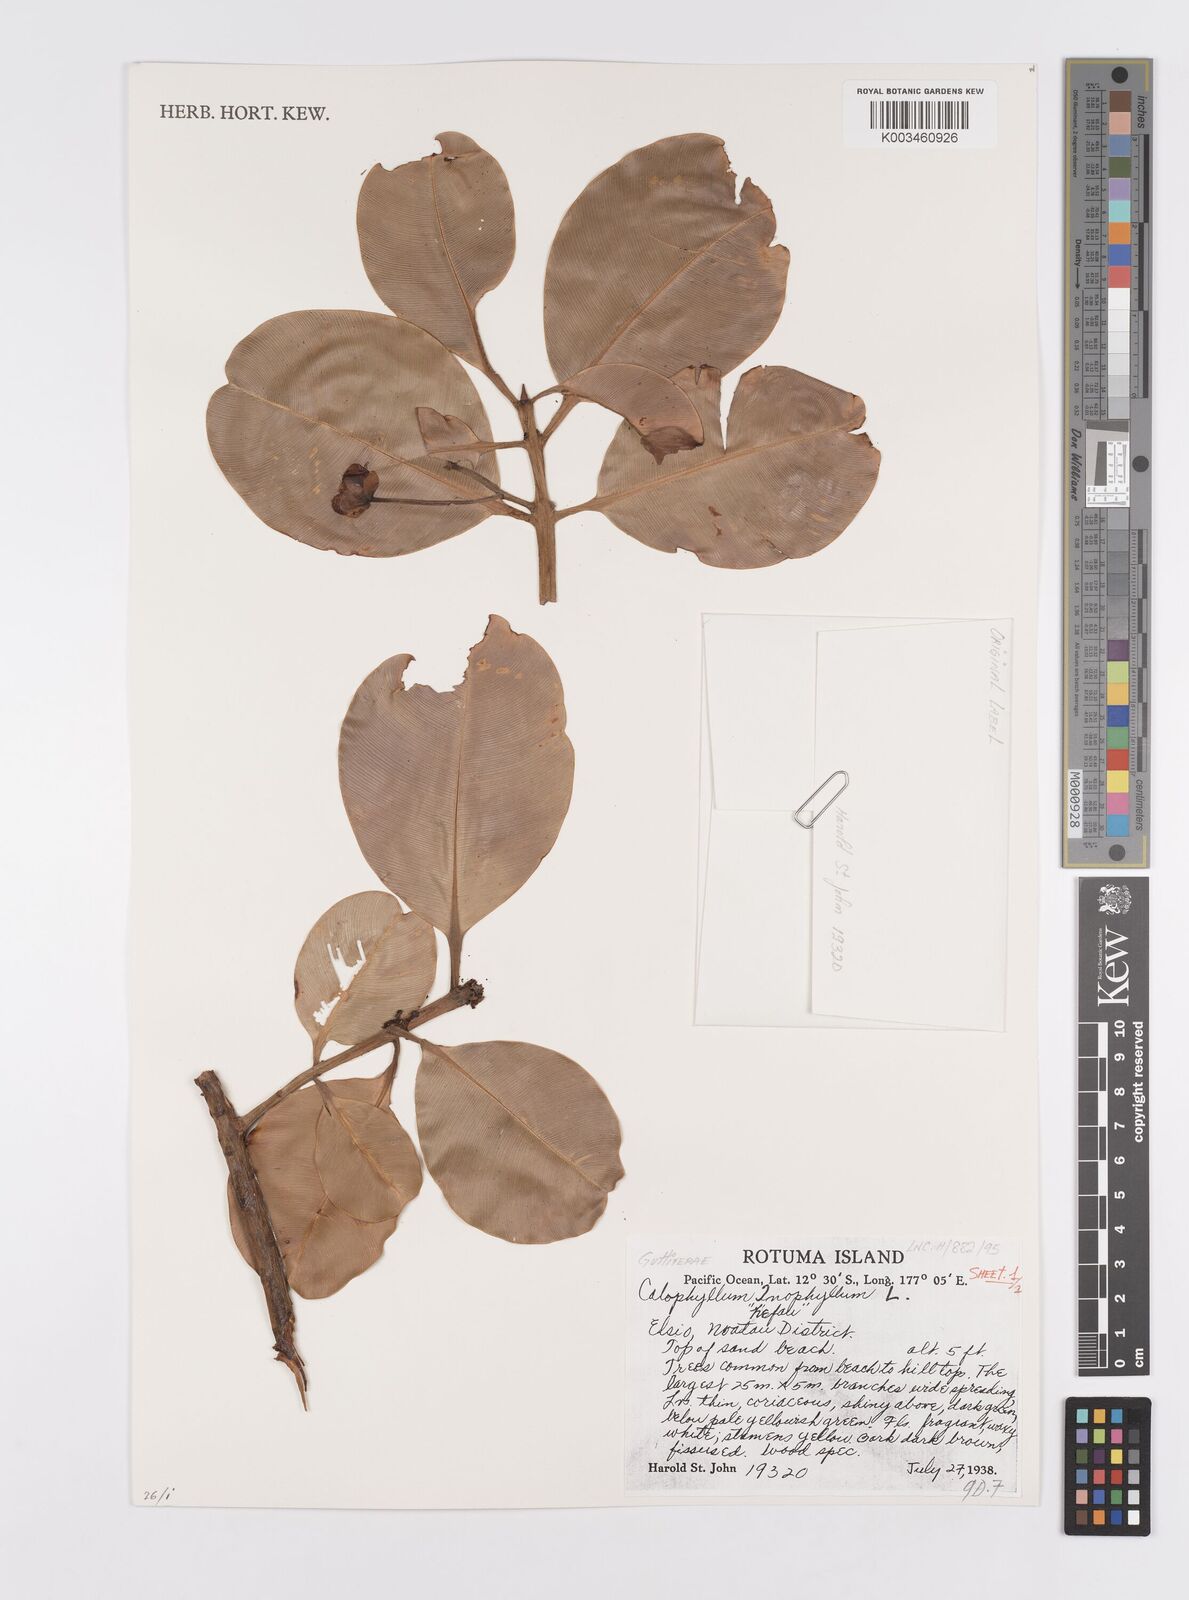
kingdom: Plantae
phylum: Tracheophyta
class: Magnoliopsida
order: Malpighiales
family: Calophyllaceae
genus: Calophyllum
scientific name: Calophyllum inophyllum
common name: Alexandrian laurel
